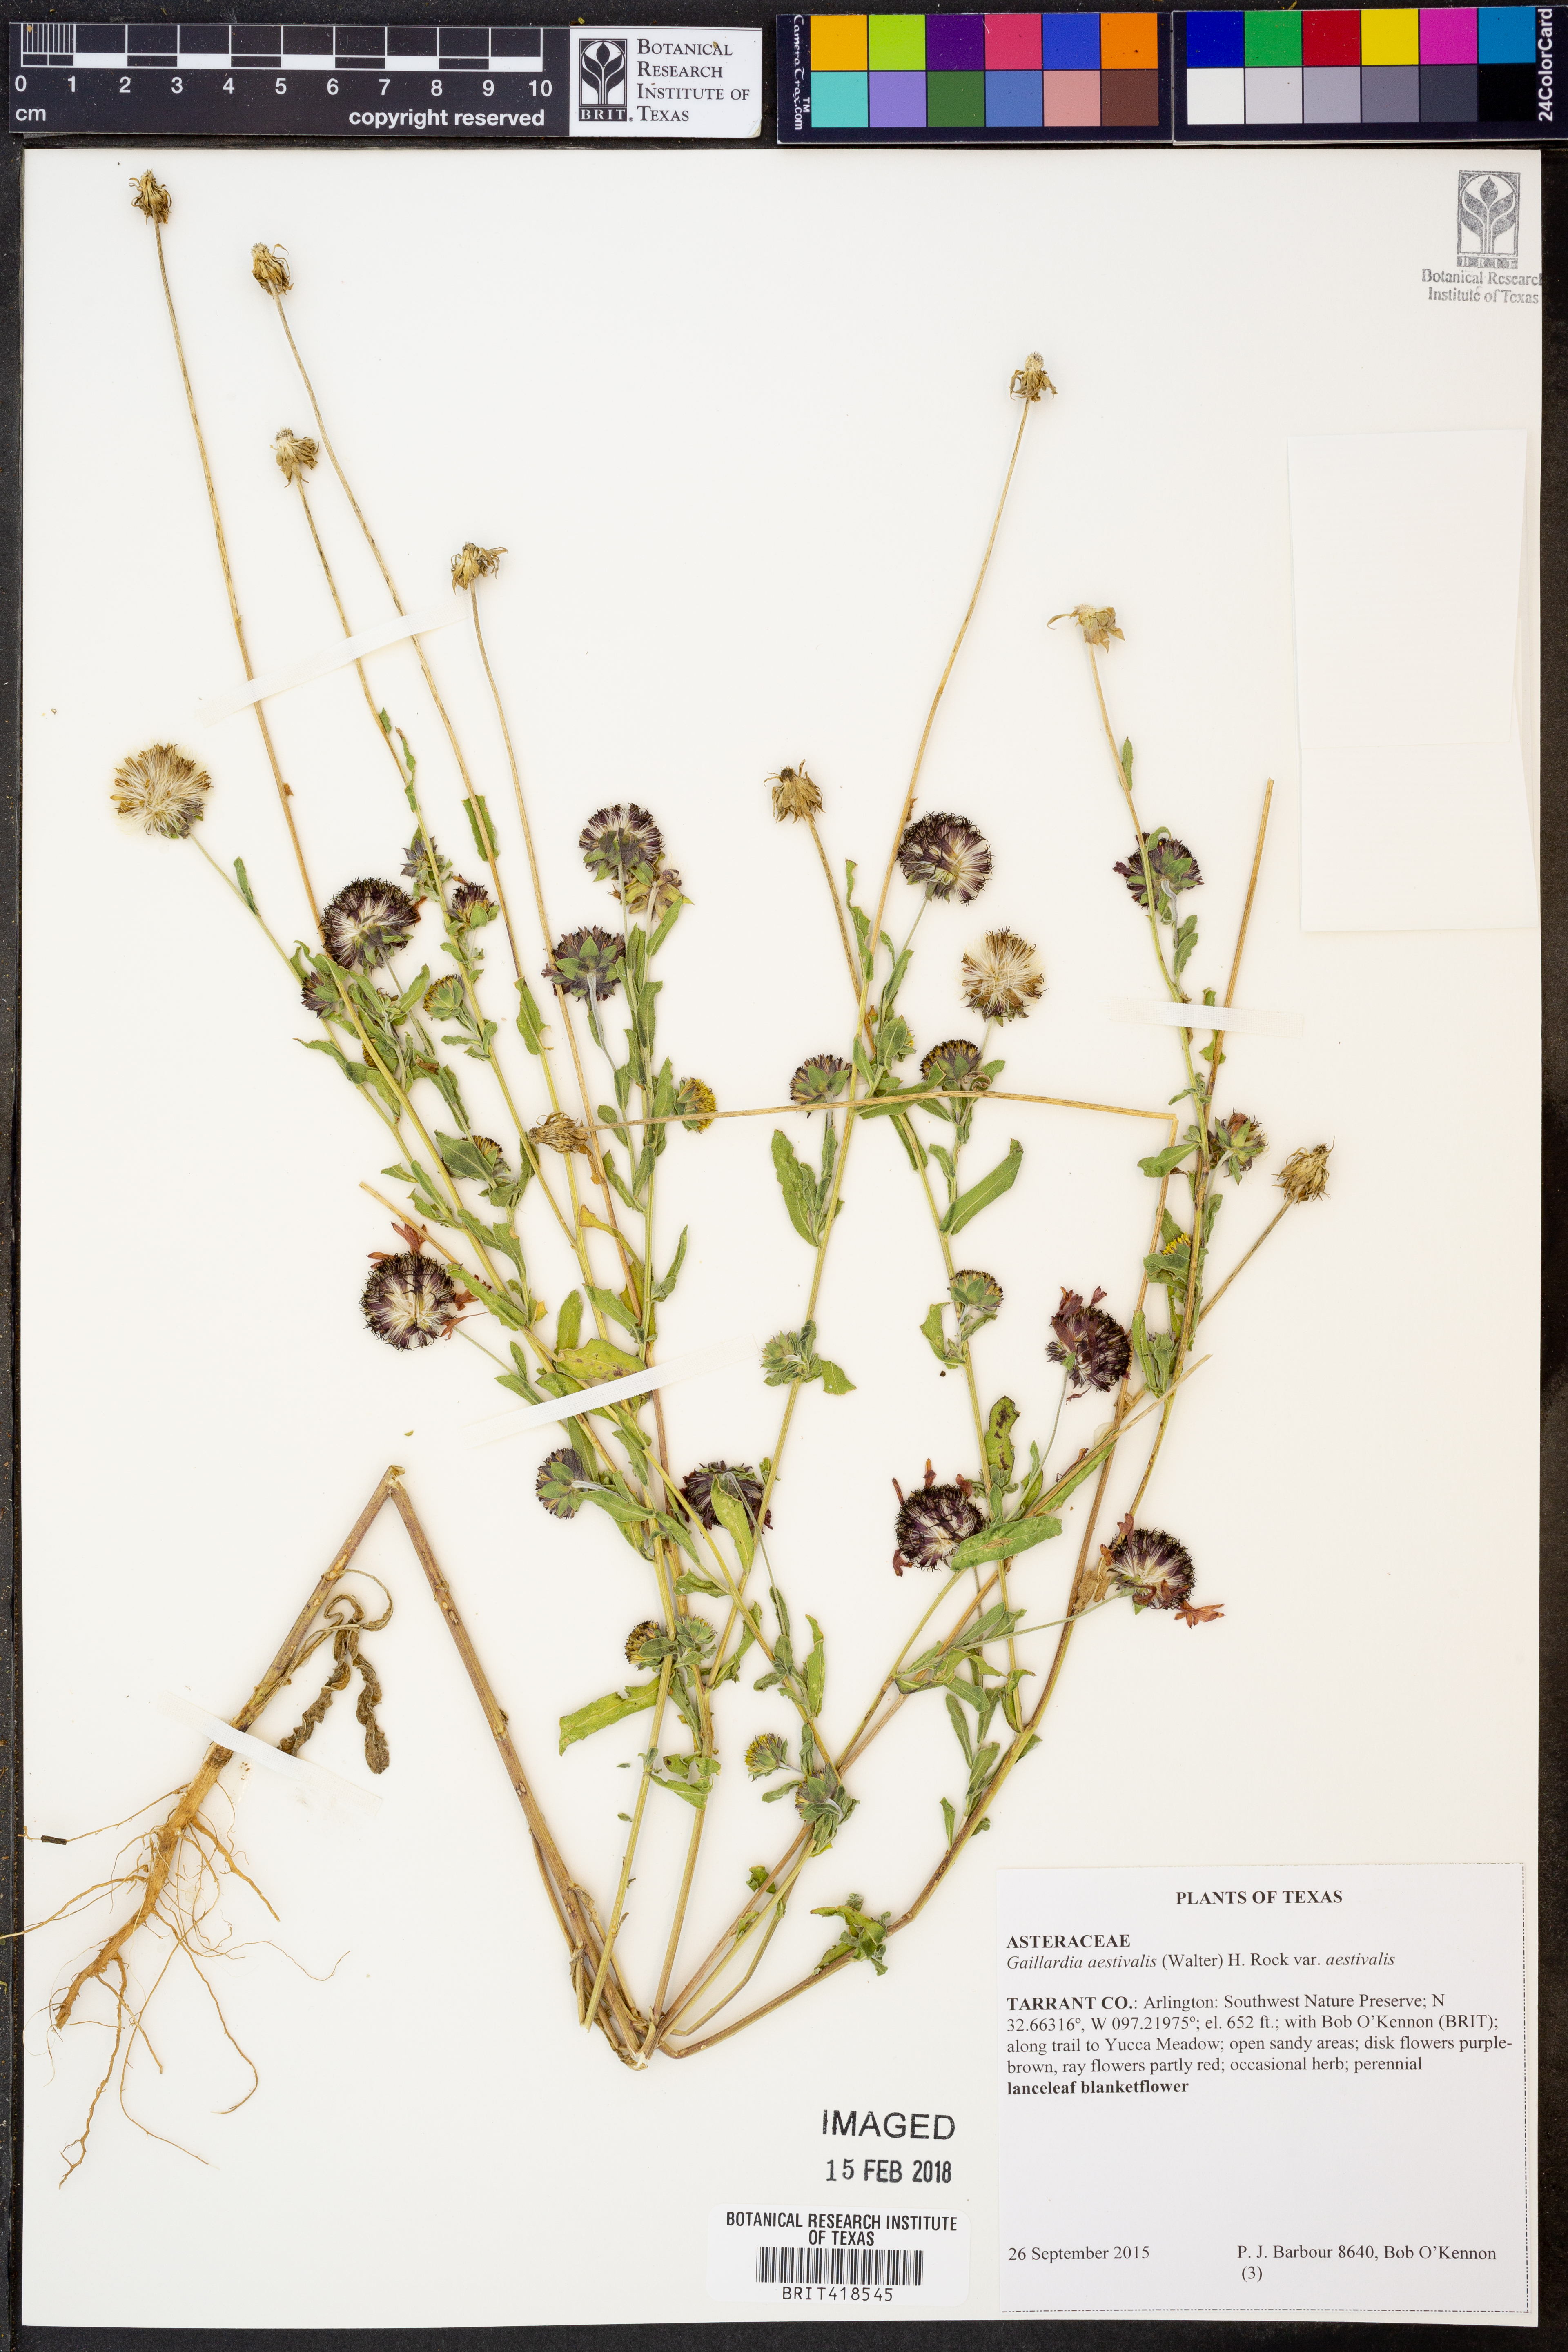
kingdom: Plantae
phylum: Tracheophyta
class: Magnoliopsida
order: Asterales
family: Asteraceae
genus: Gaillardia
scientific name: Gaillardia aestivalis
